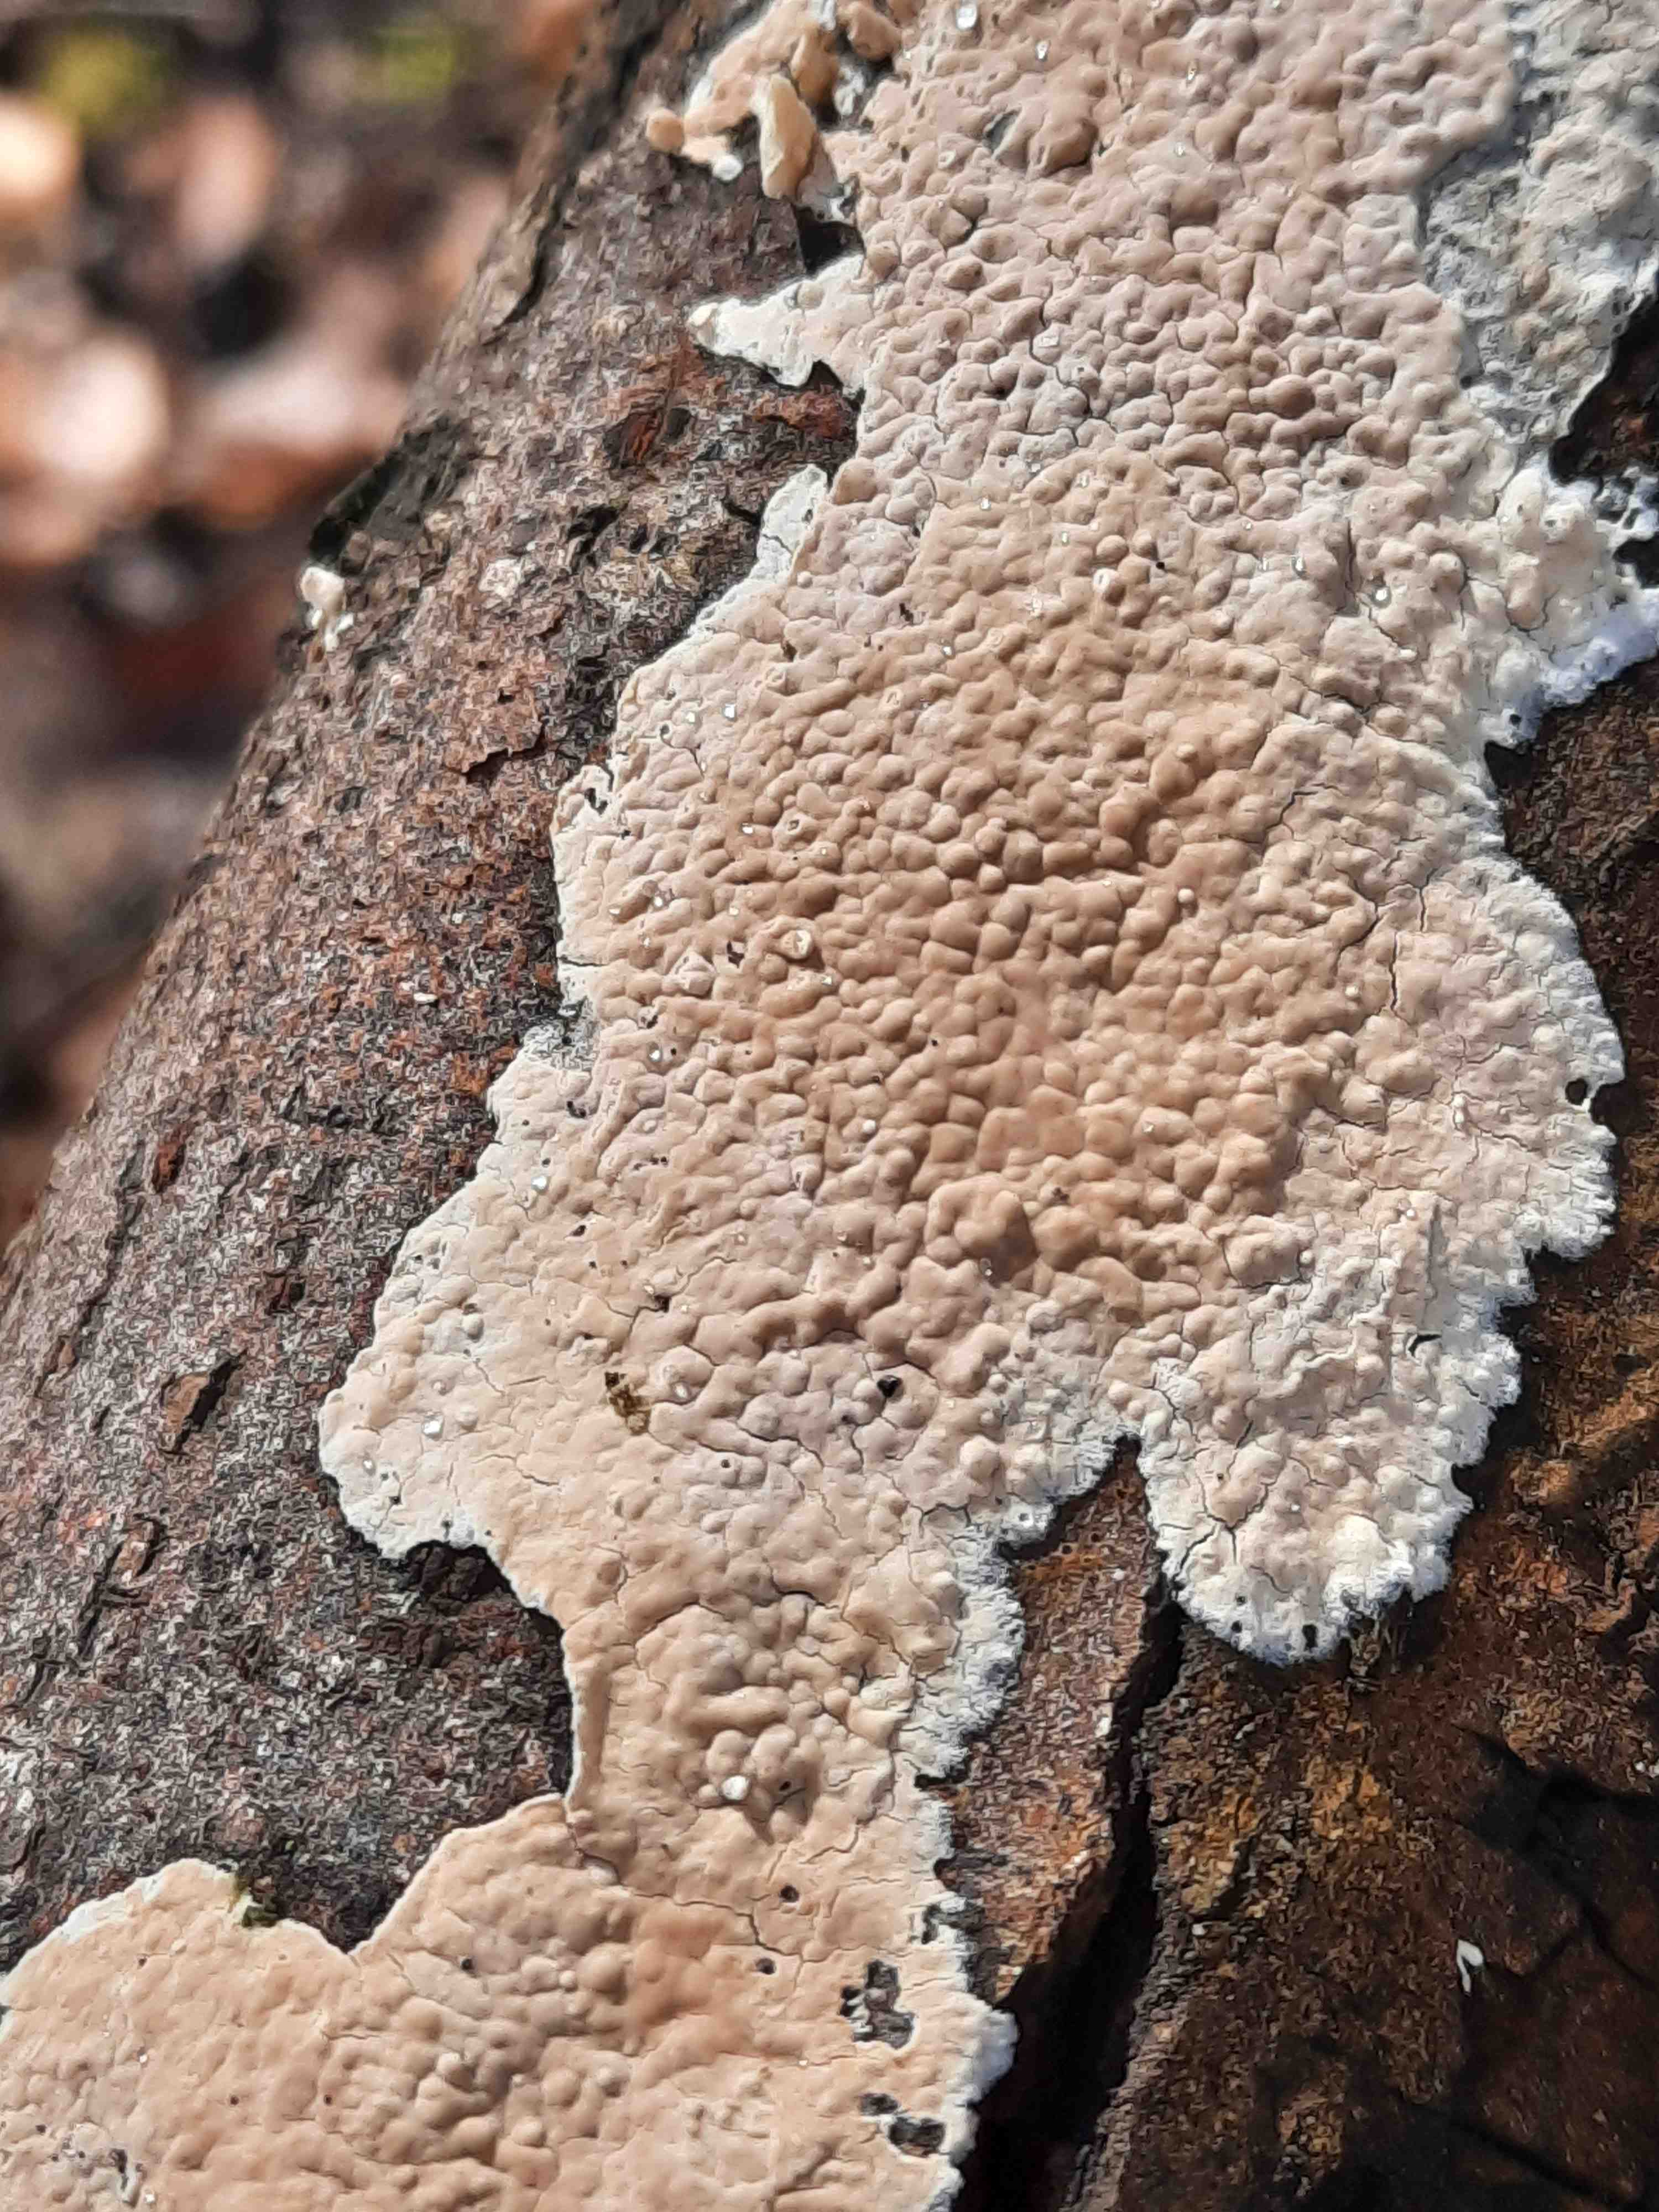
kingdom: Fungi
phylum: Basidiomycota
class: Agaricomycetes
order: Agaricales
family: Physalacriaceae
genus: Cylindrobasidium
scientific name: Cylindrobasidium evolvens
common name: sprækkehinde
